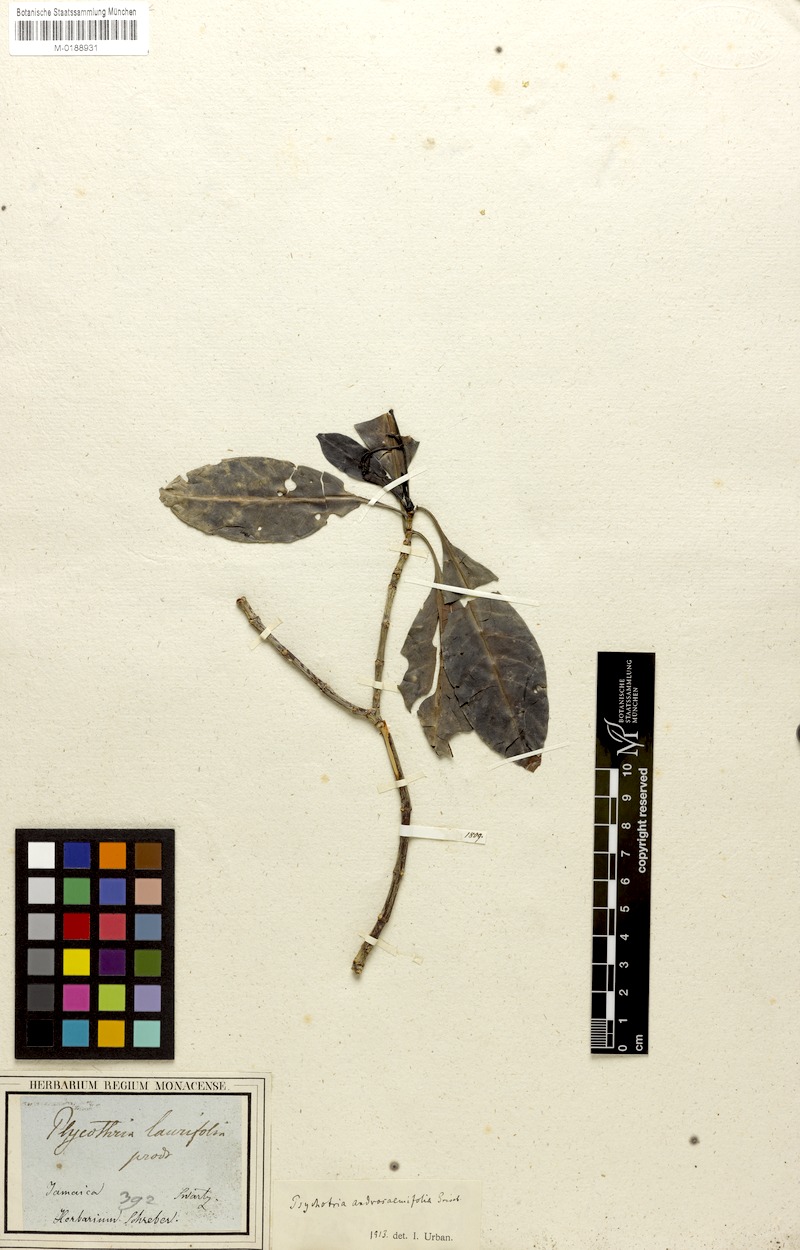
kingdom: Plantae
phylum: Tracheophyta
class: Magnoliopsida
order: Gentianales
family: Rubiaceae
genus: Psychotria
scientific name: Psychotria glabrata
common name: Browne's wild coffee
